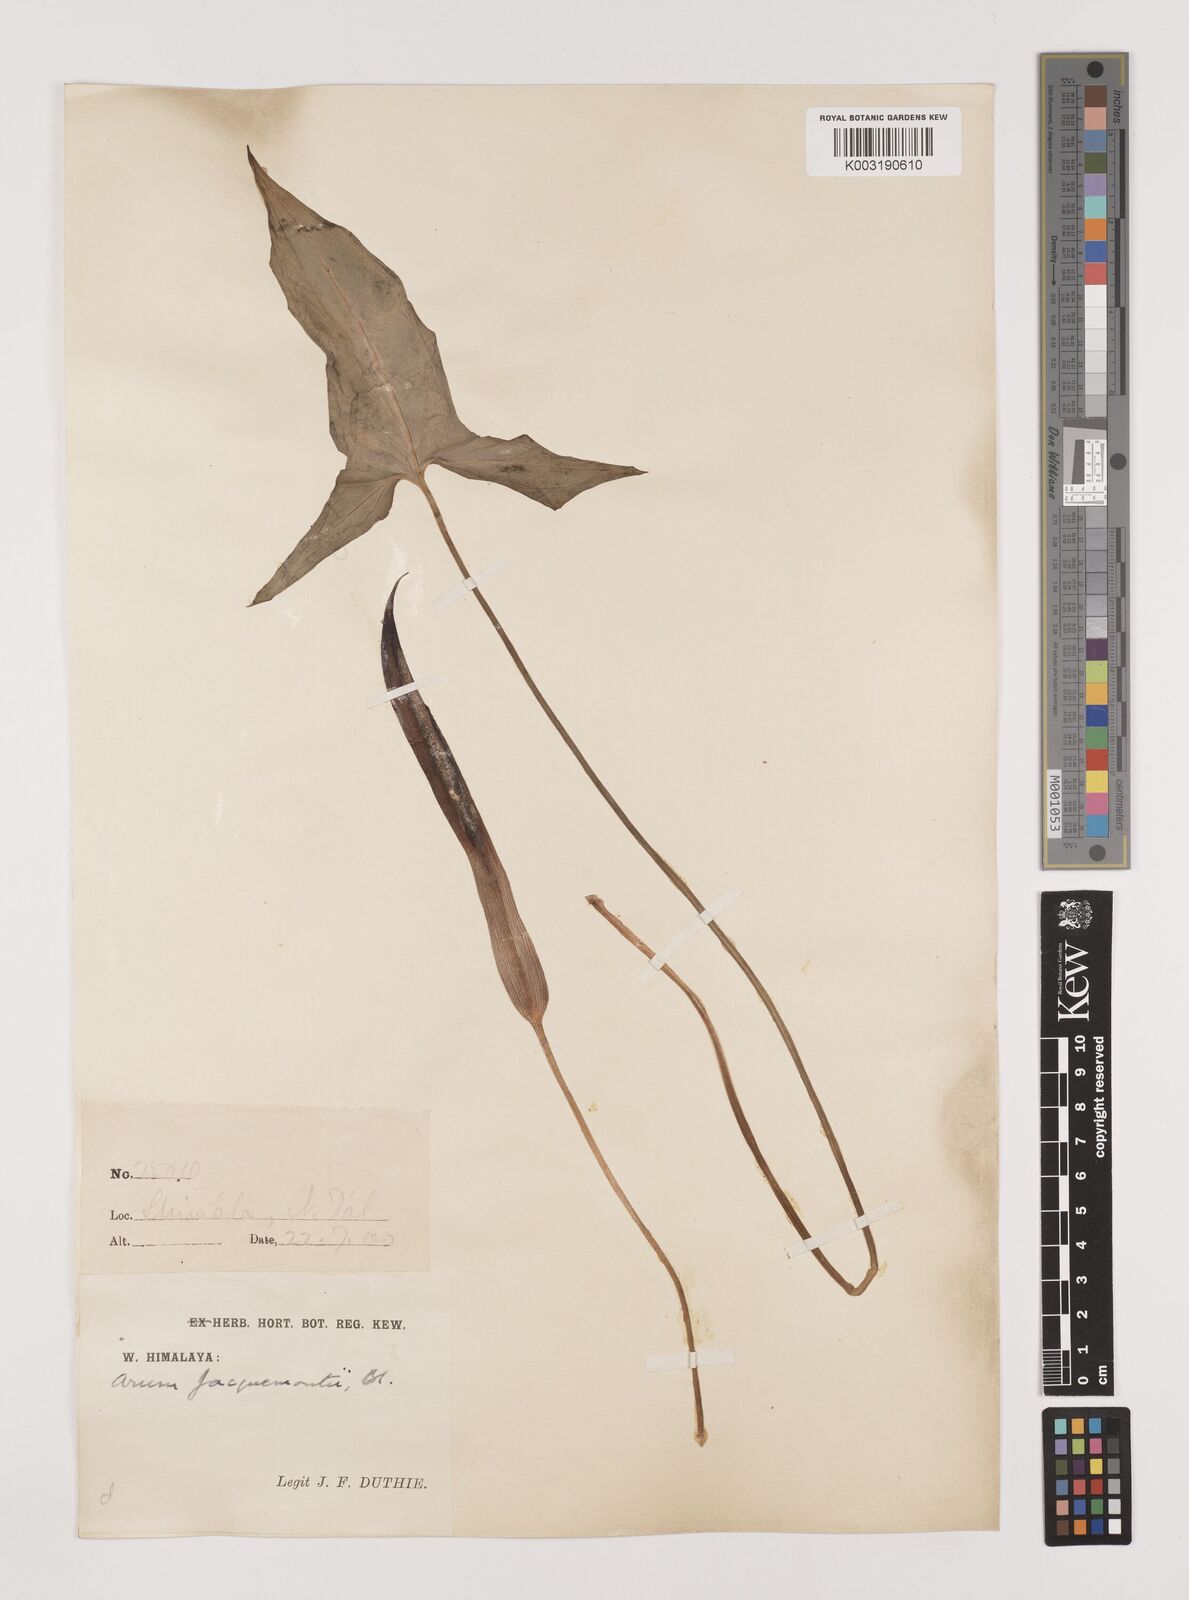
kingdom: Plantae
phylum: Tracheophyta
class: Liliopsida
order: Alismatales
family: Araceae
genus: Arum
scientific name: Arum jacquemontii
